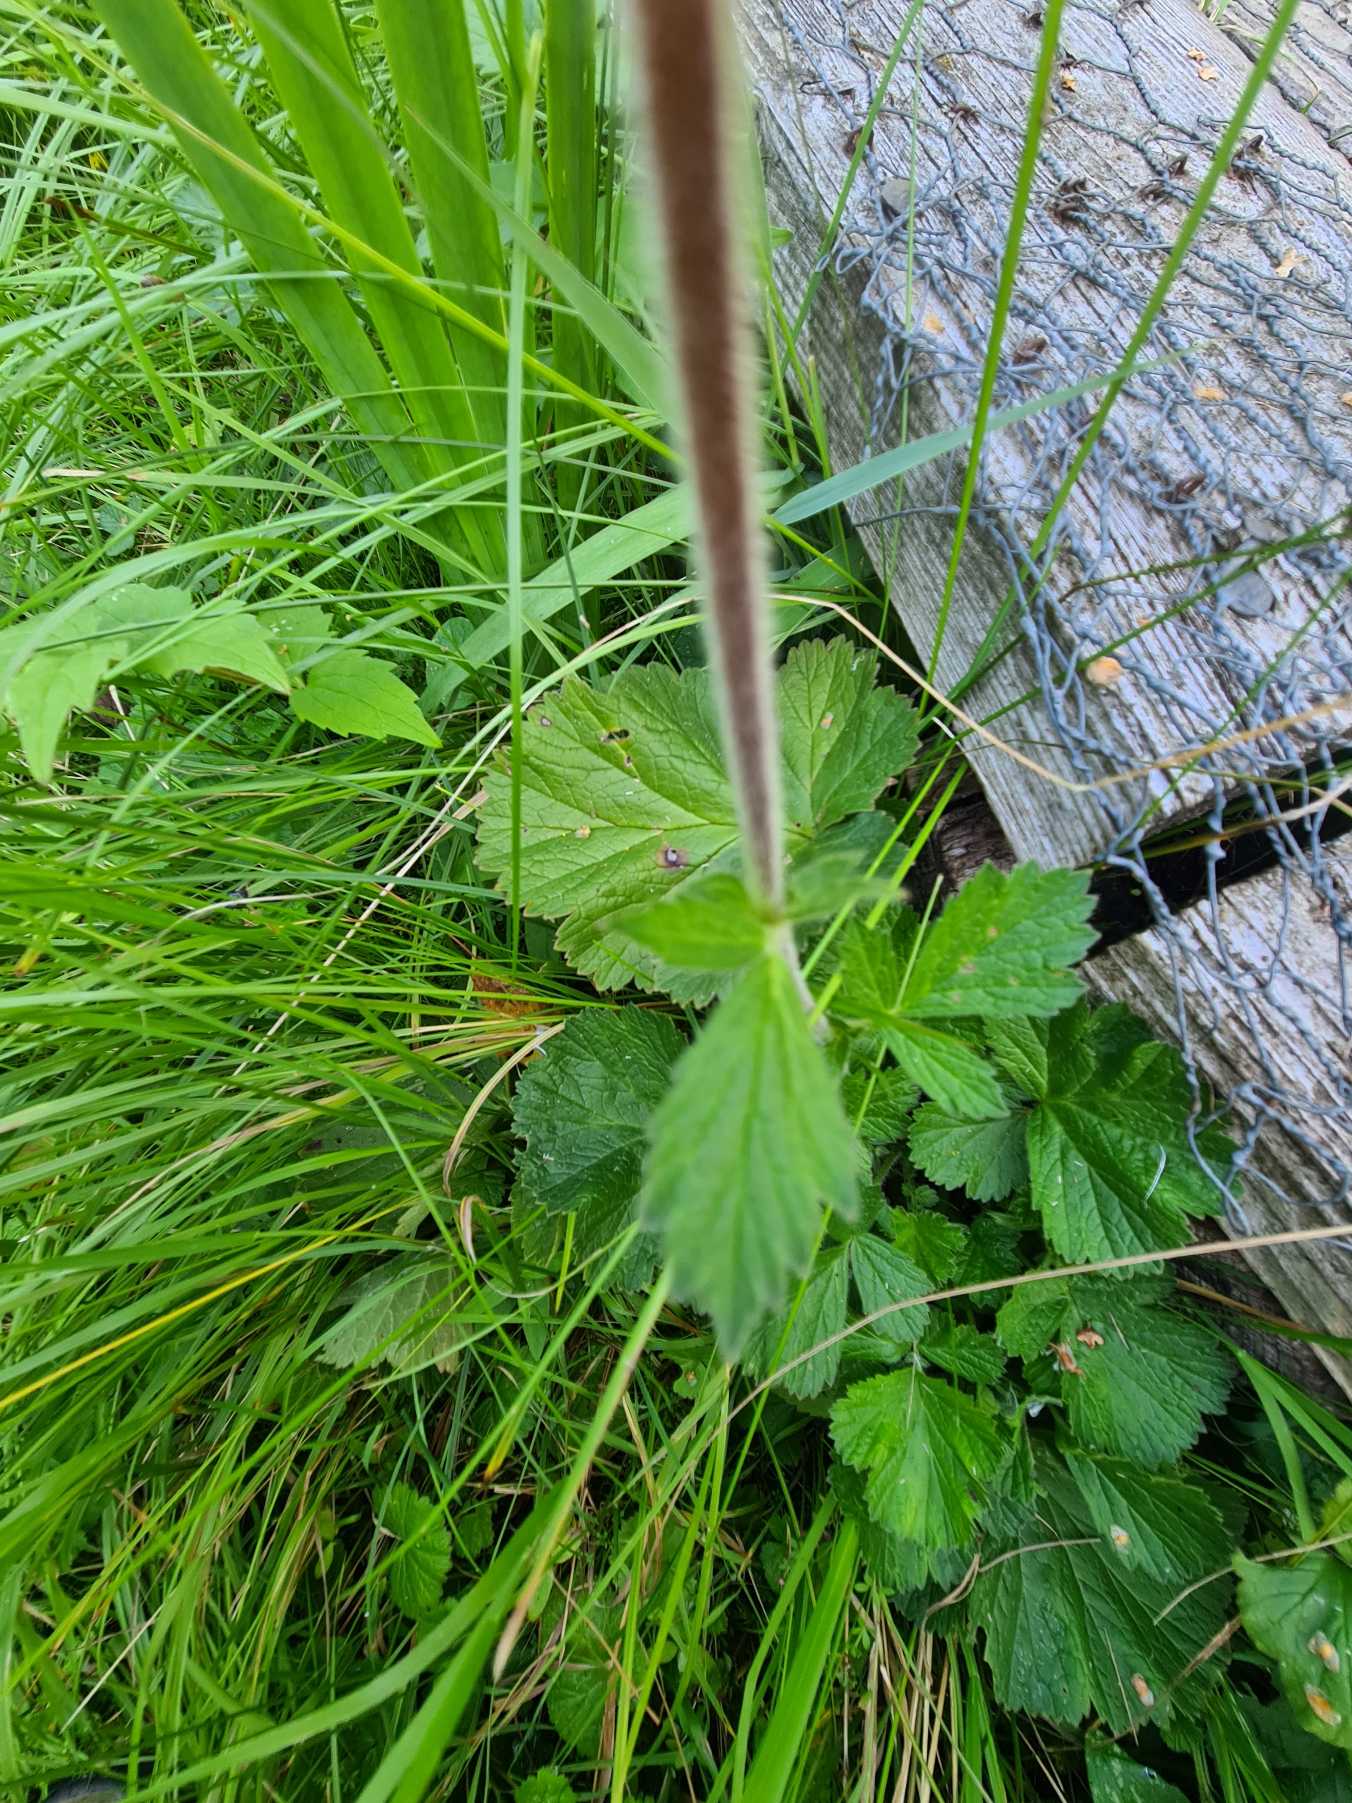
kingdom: Plantae
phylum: Tracheophyta
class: Magnoliopsida
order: Rosales
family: Rosaceae
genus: Geum
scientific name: Geum rivale
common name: Eng-nellikerod
